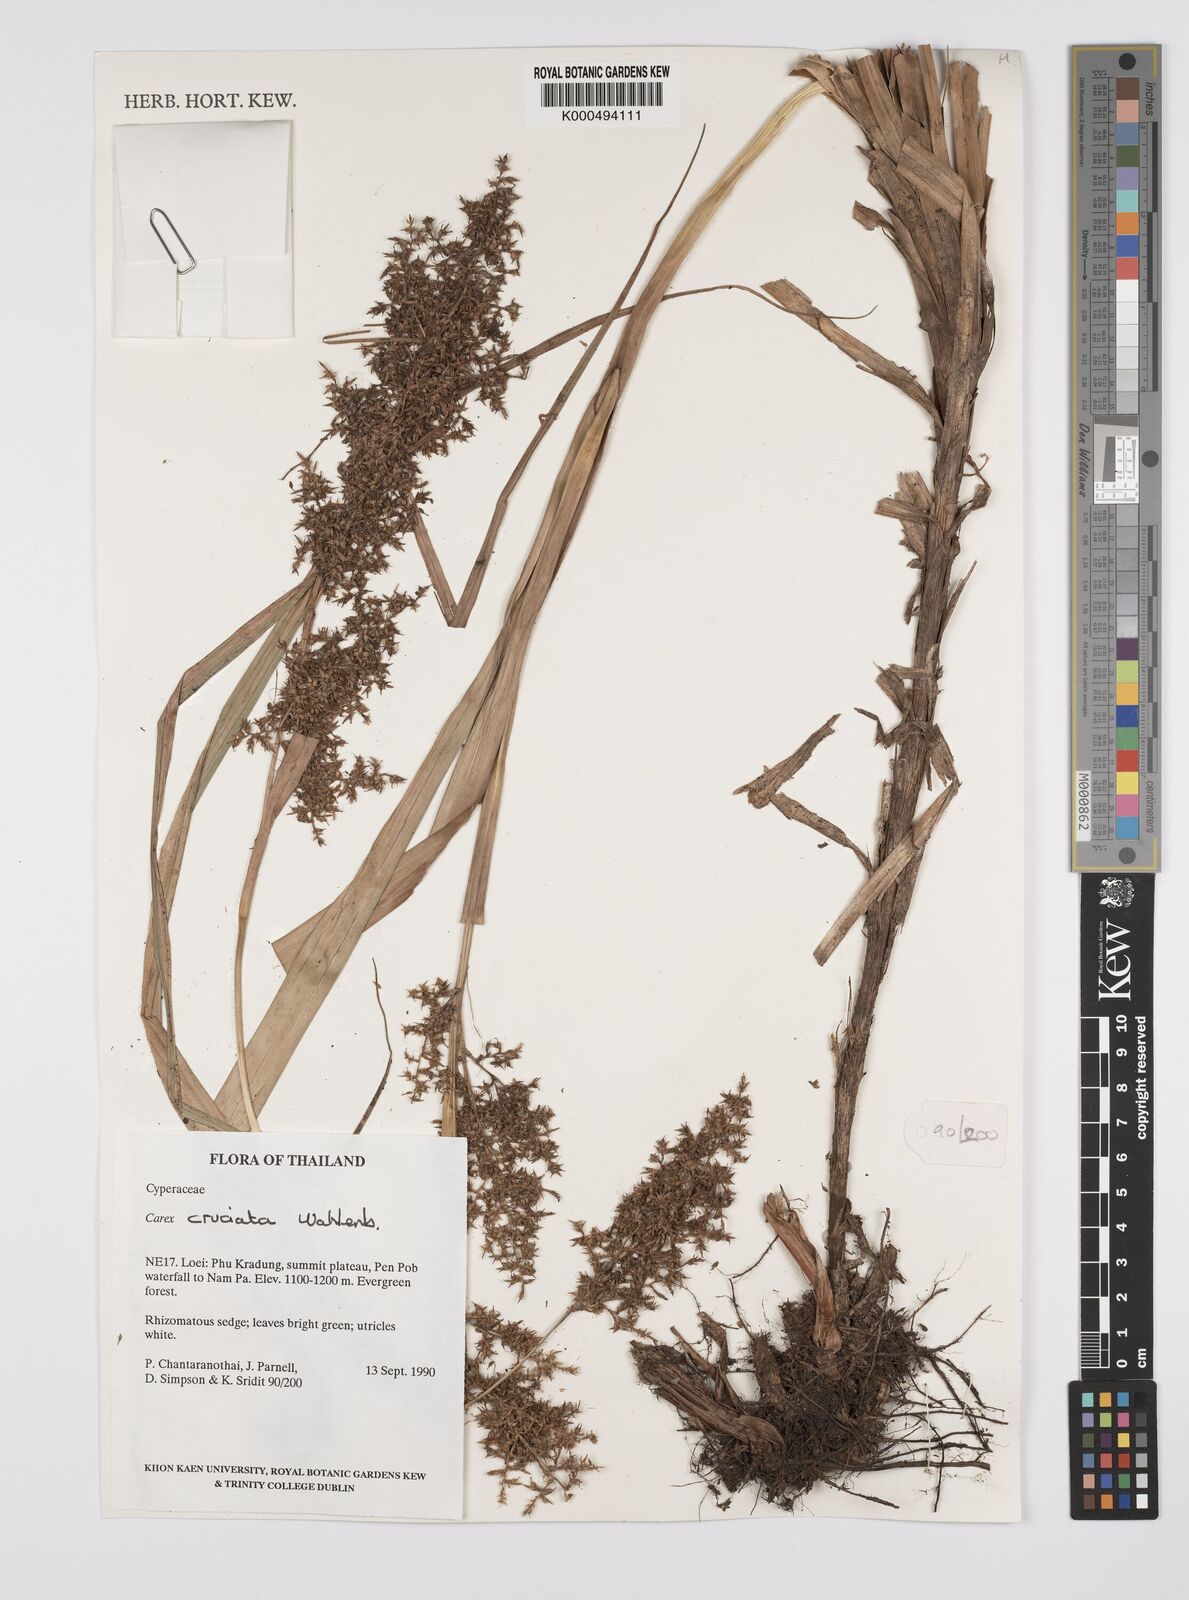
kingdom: Plantae
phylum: Tracheophyta
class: Liliopsida
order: Poales
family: Cyperaceae
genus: Carex
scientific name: Carex cruciata
